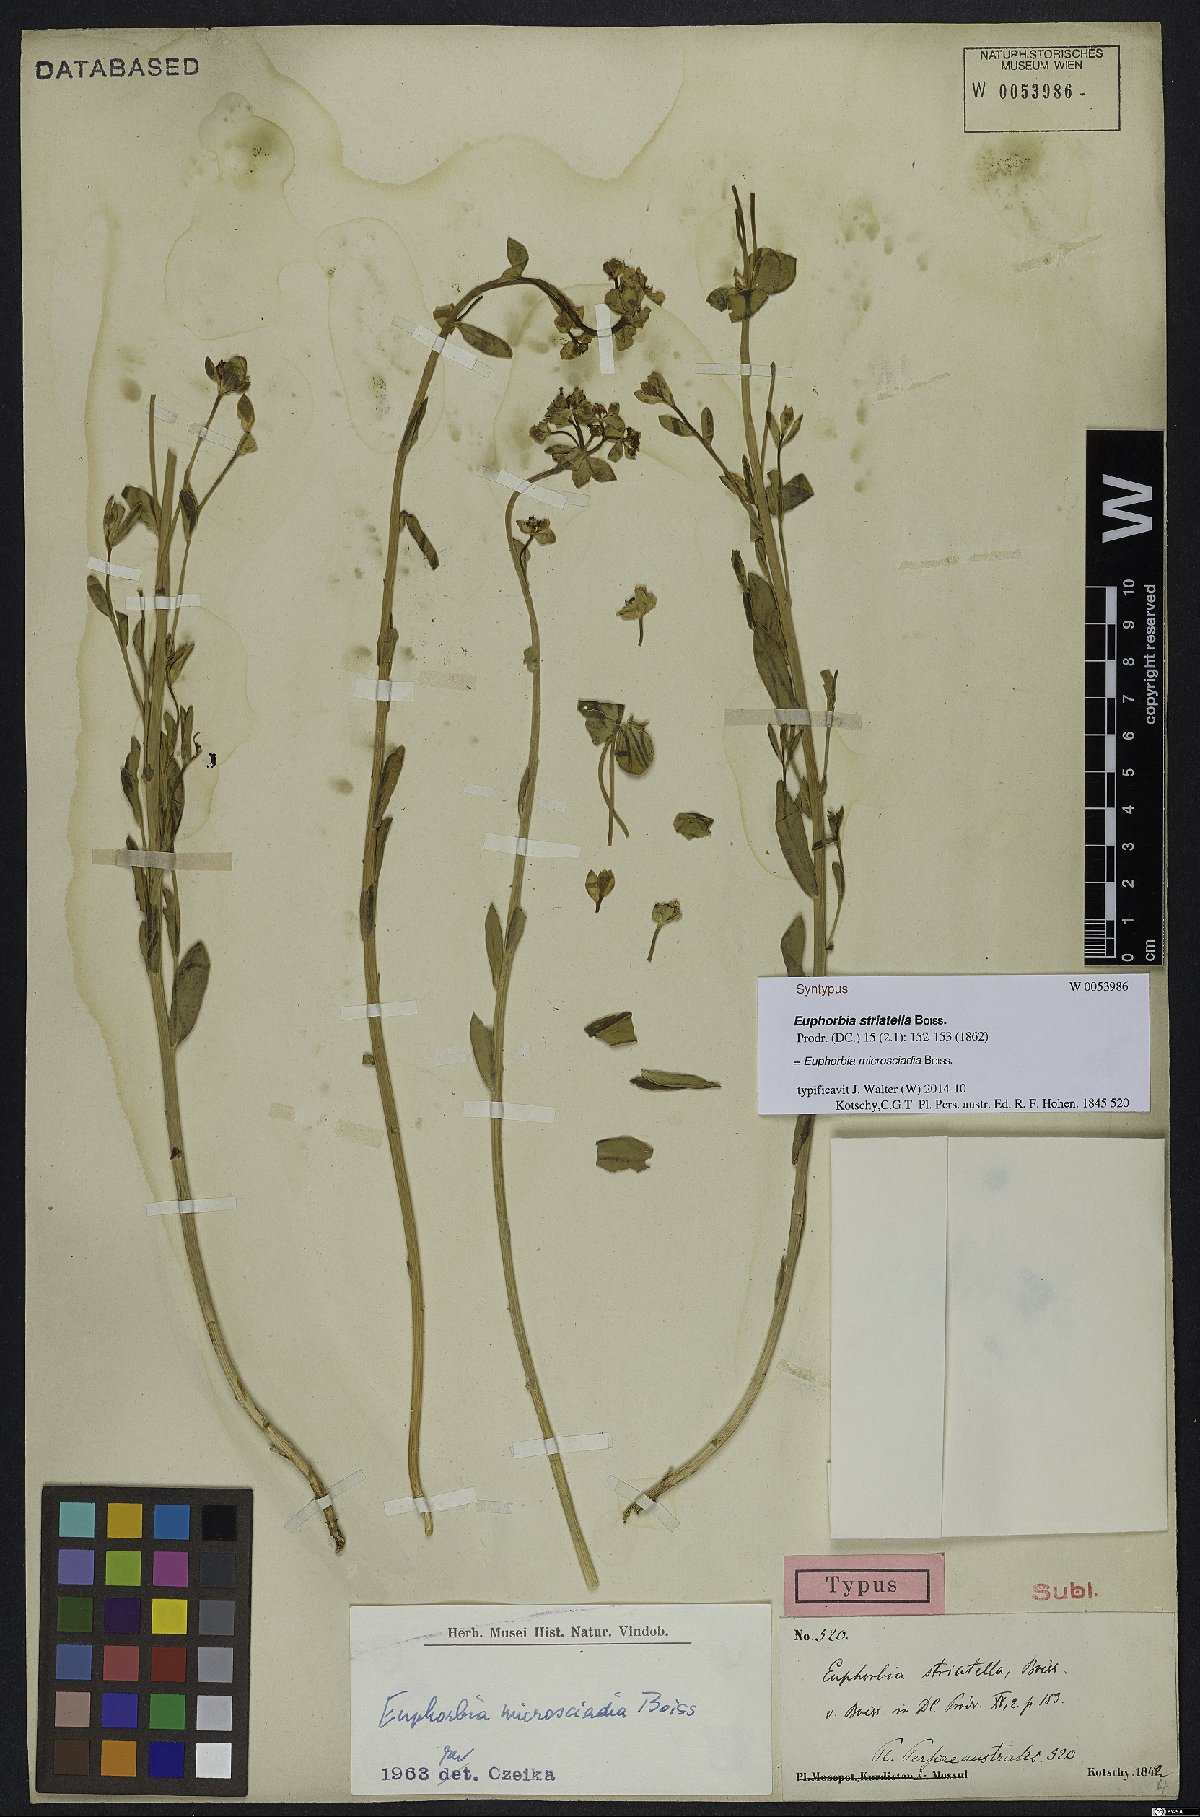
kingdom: Plantae
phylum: Tracheophyta
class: Magnoliopsida
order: Malpighiales
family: Euphorbiaceae
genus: Euphorbia
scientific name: Euphorbia microsciadia
